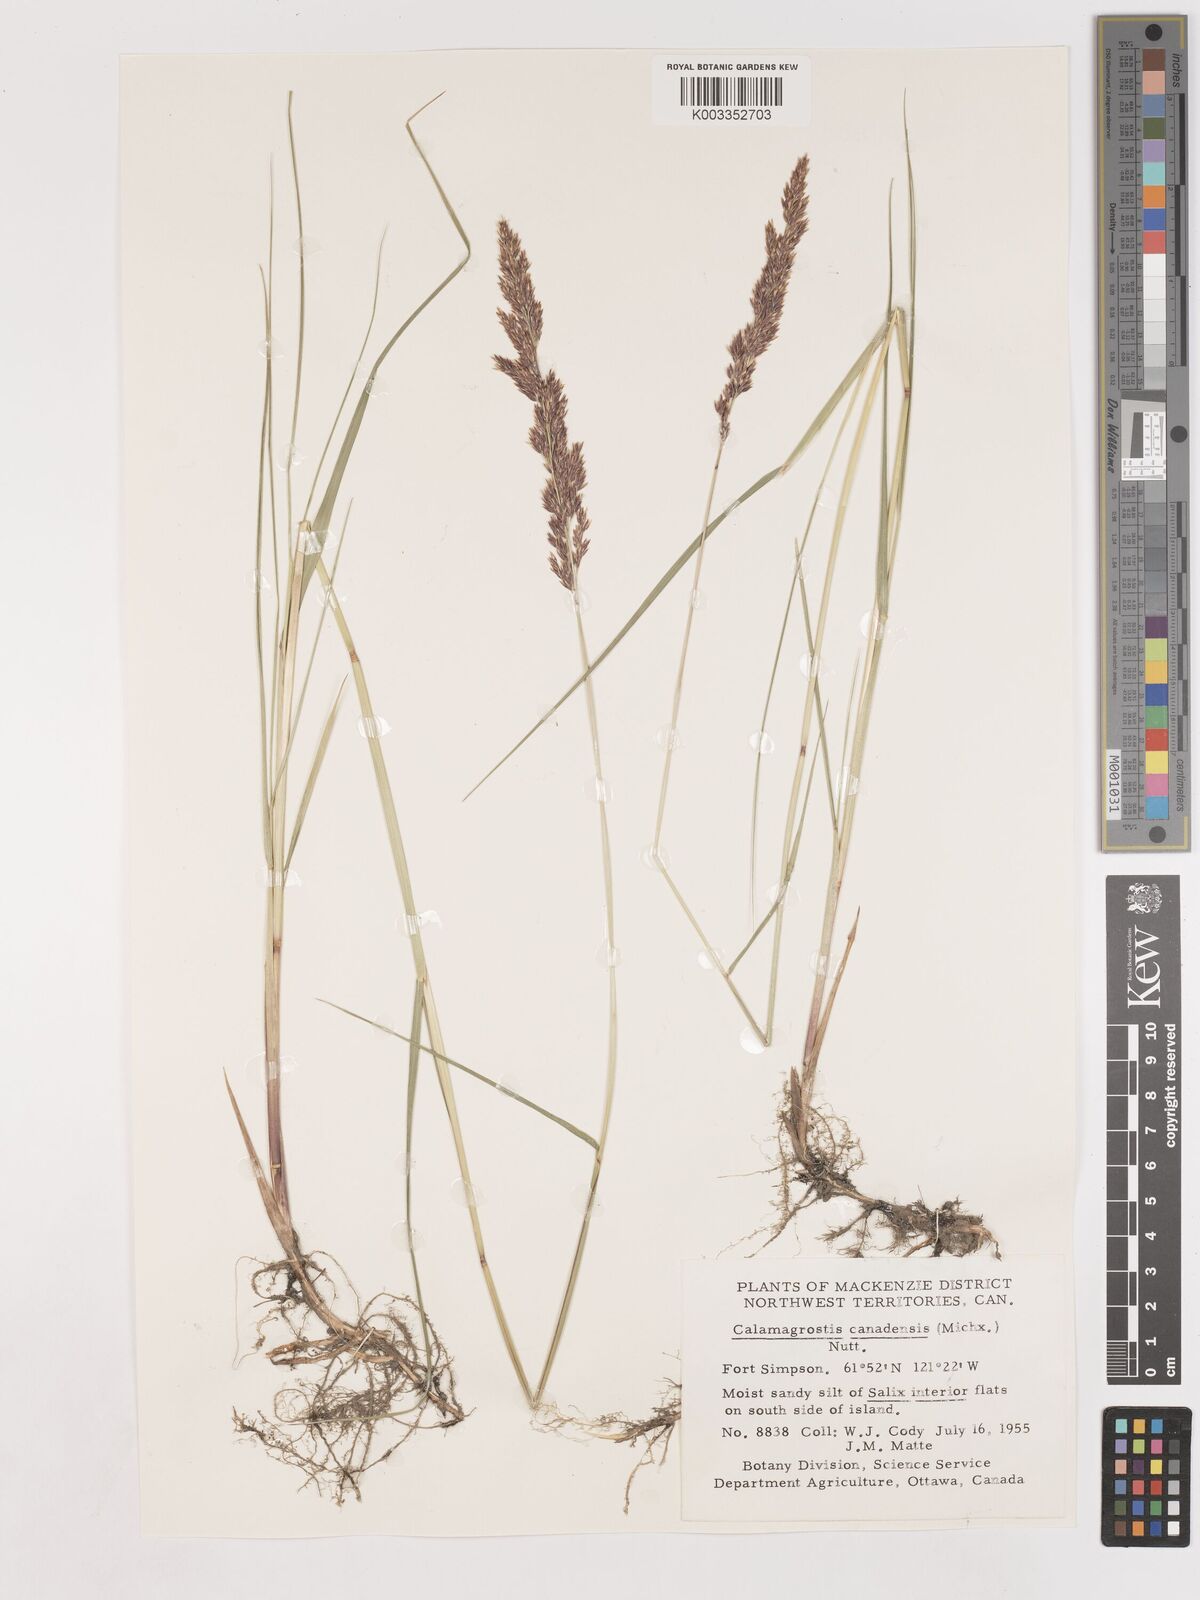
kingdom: Plantae
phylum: Tracheophyta
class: Liliopsida
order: Poales
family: Poaceae
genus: Calamagrostis
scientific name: Calamagrostis canadensis
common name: Canada bluejoint
